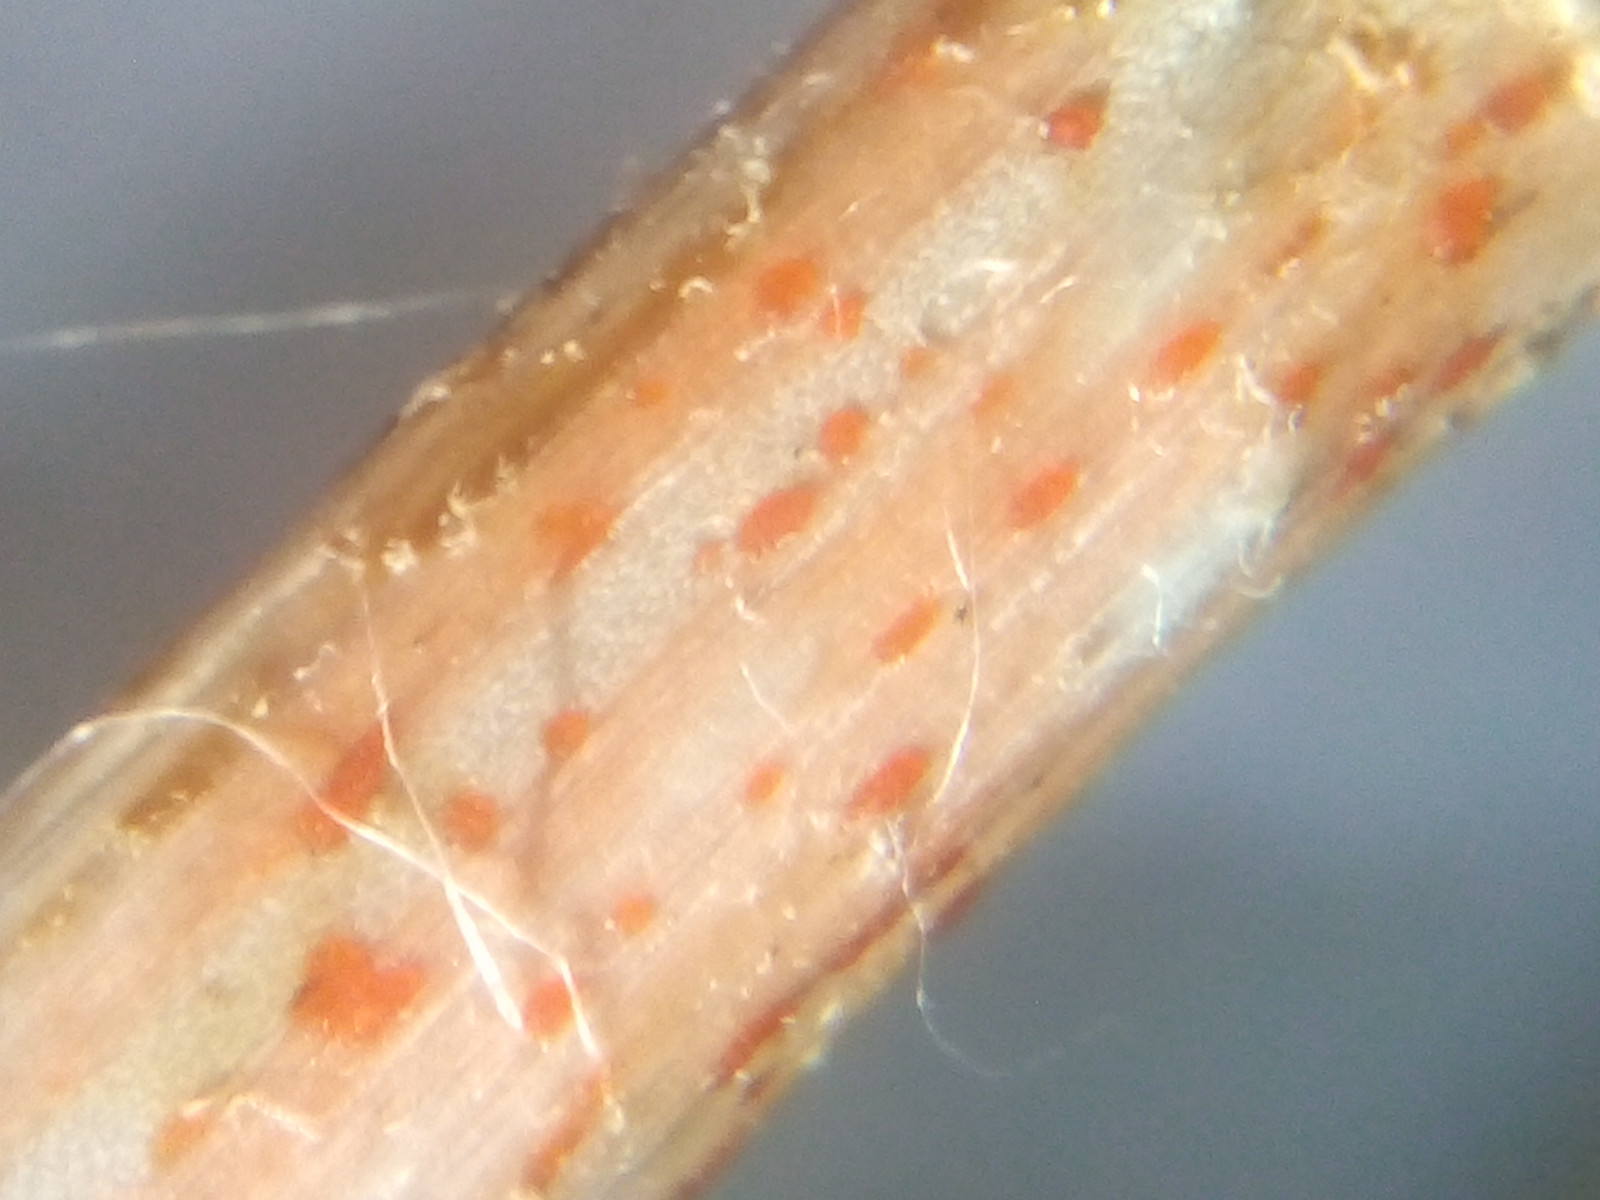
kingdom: Fungi
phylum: Ascomycota
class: Leotiomycetes
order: Helotiales
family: Calloriaceae
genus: Calloria
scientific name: Calloria urticae
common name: nælde-orangeskive
